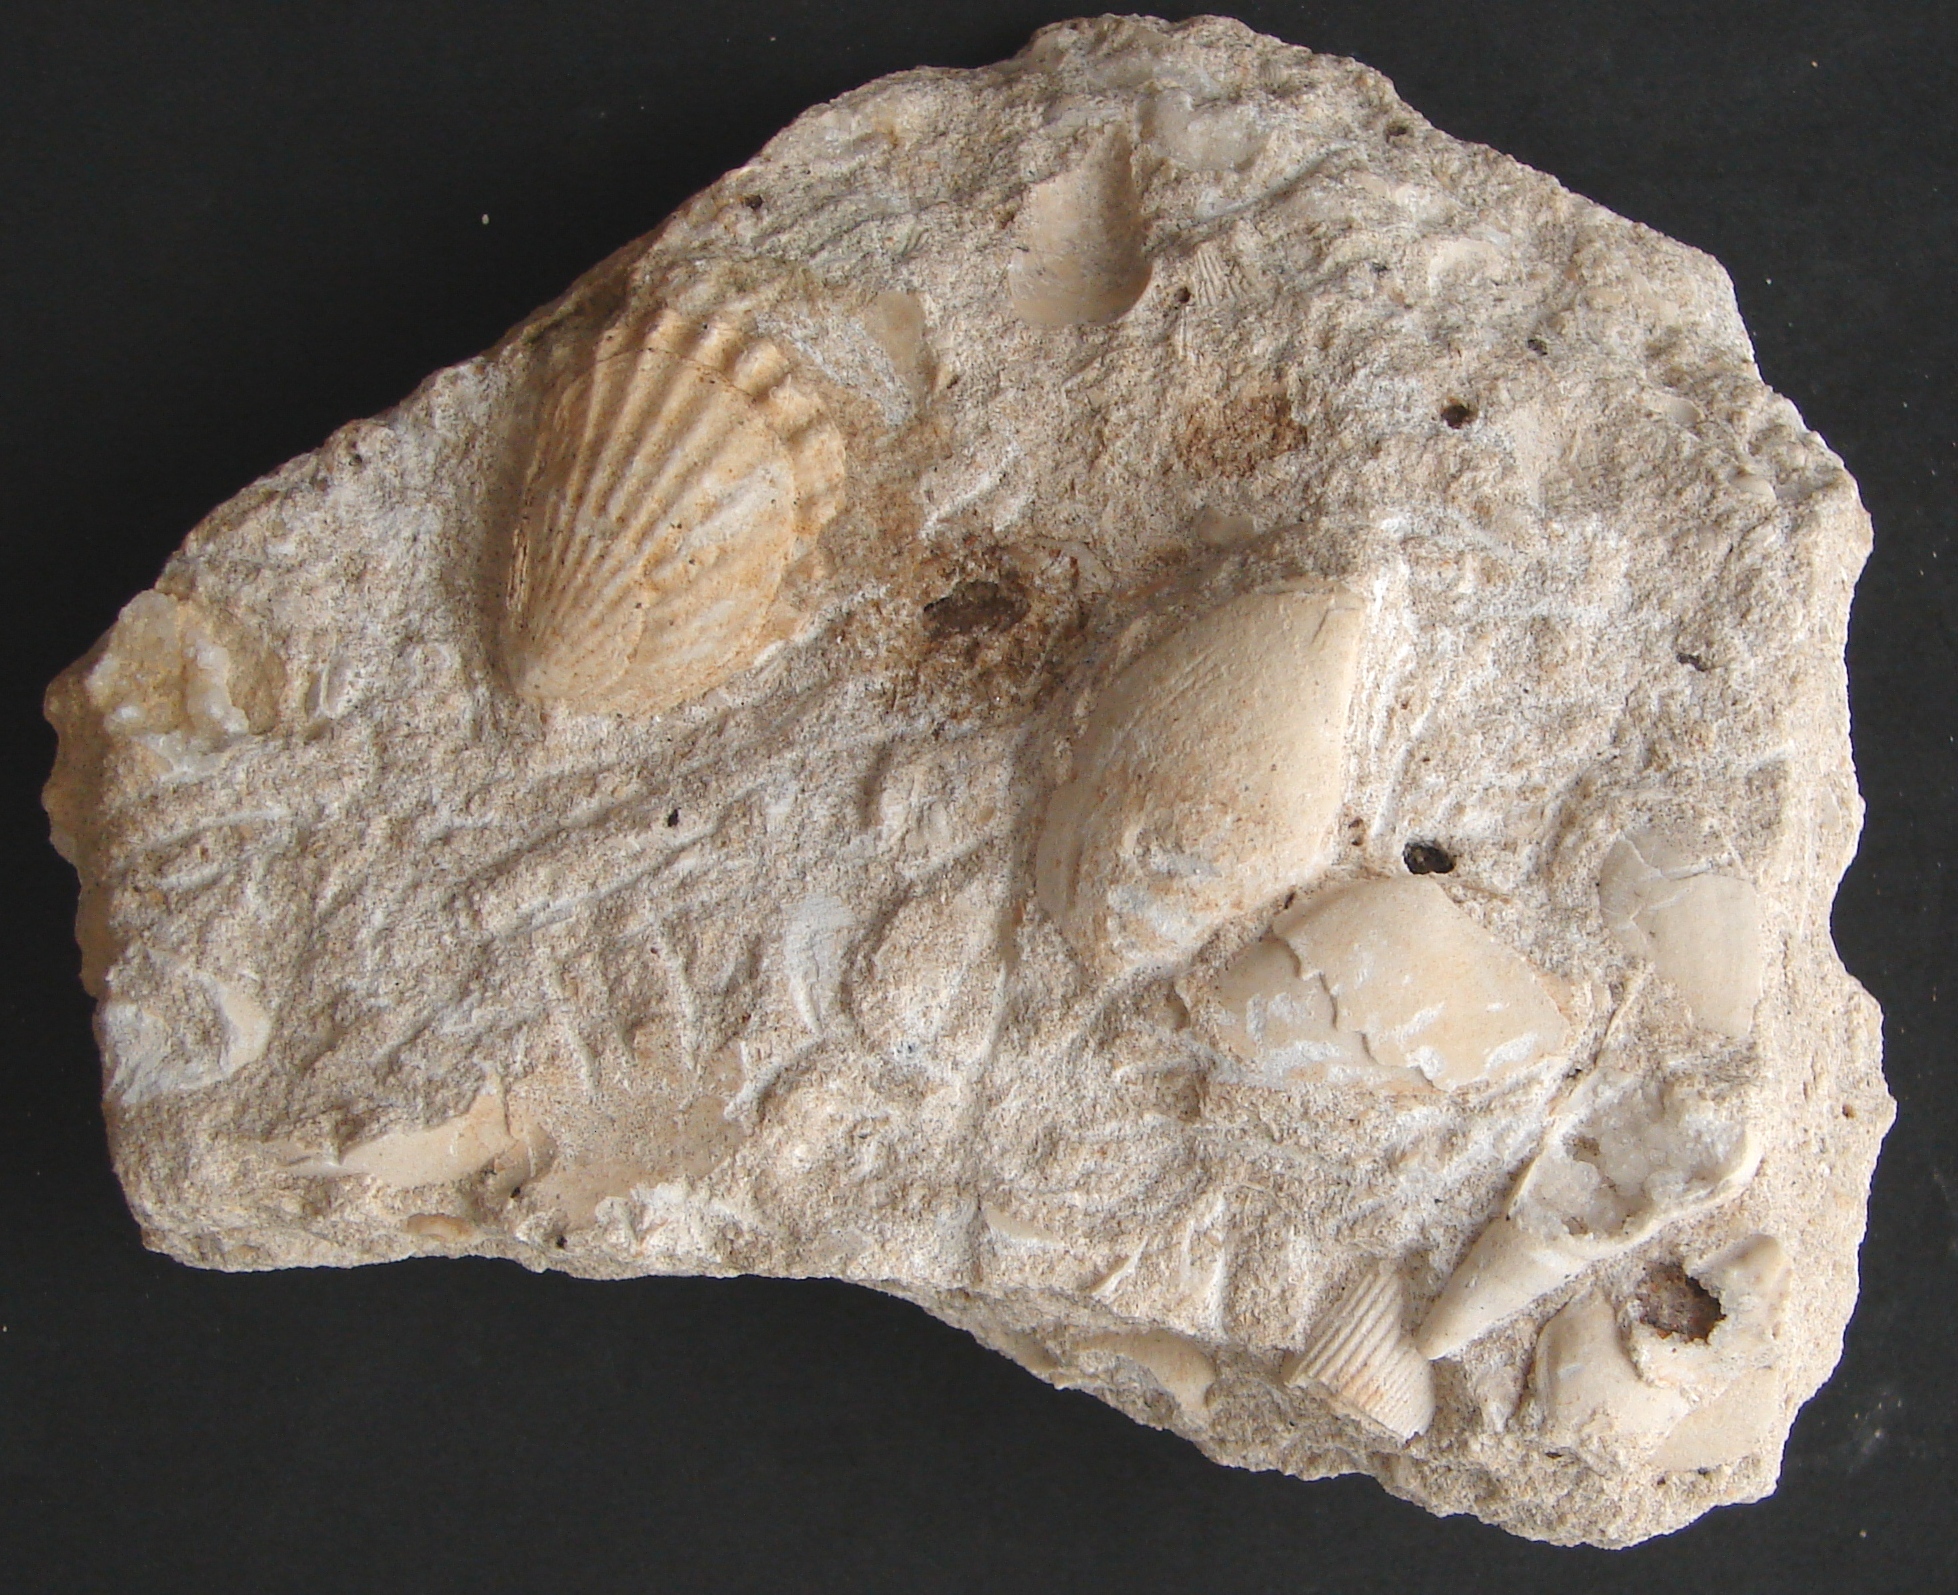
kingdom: Animalia
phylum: Mollusca
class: Bivalvia
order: Limida
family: Limidae
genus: Ctenostreon
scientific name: Ctenostreon
